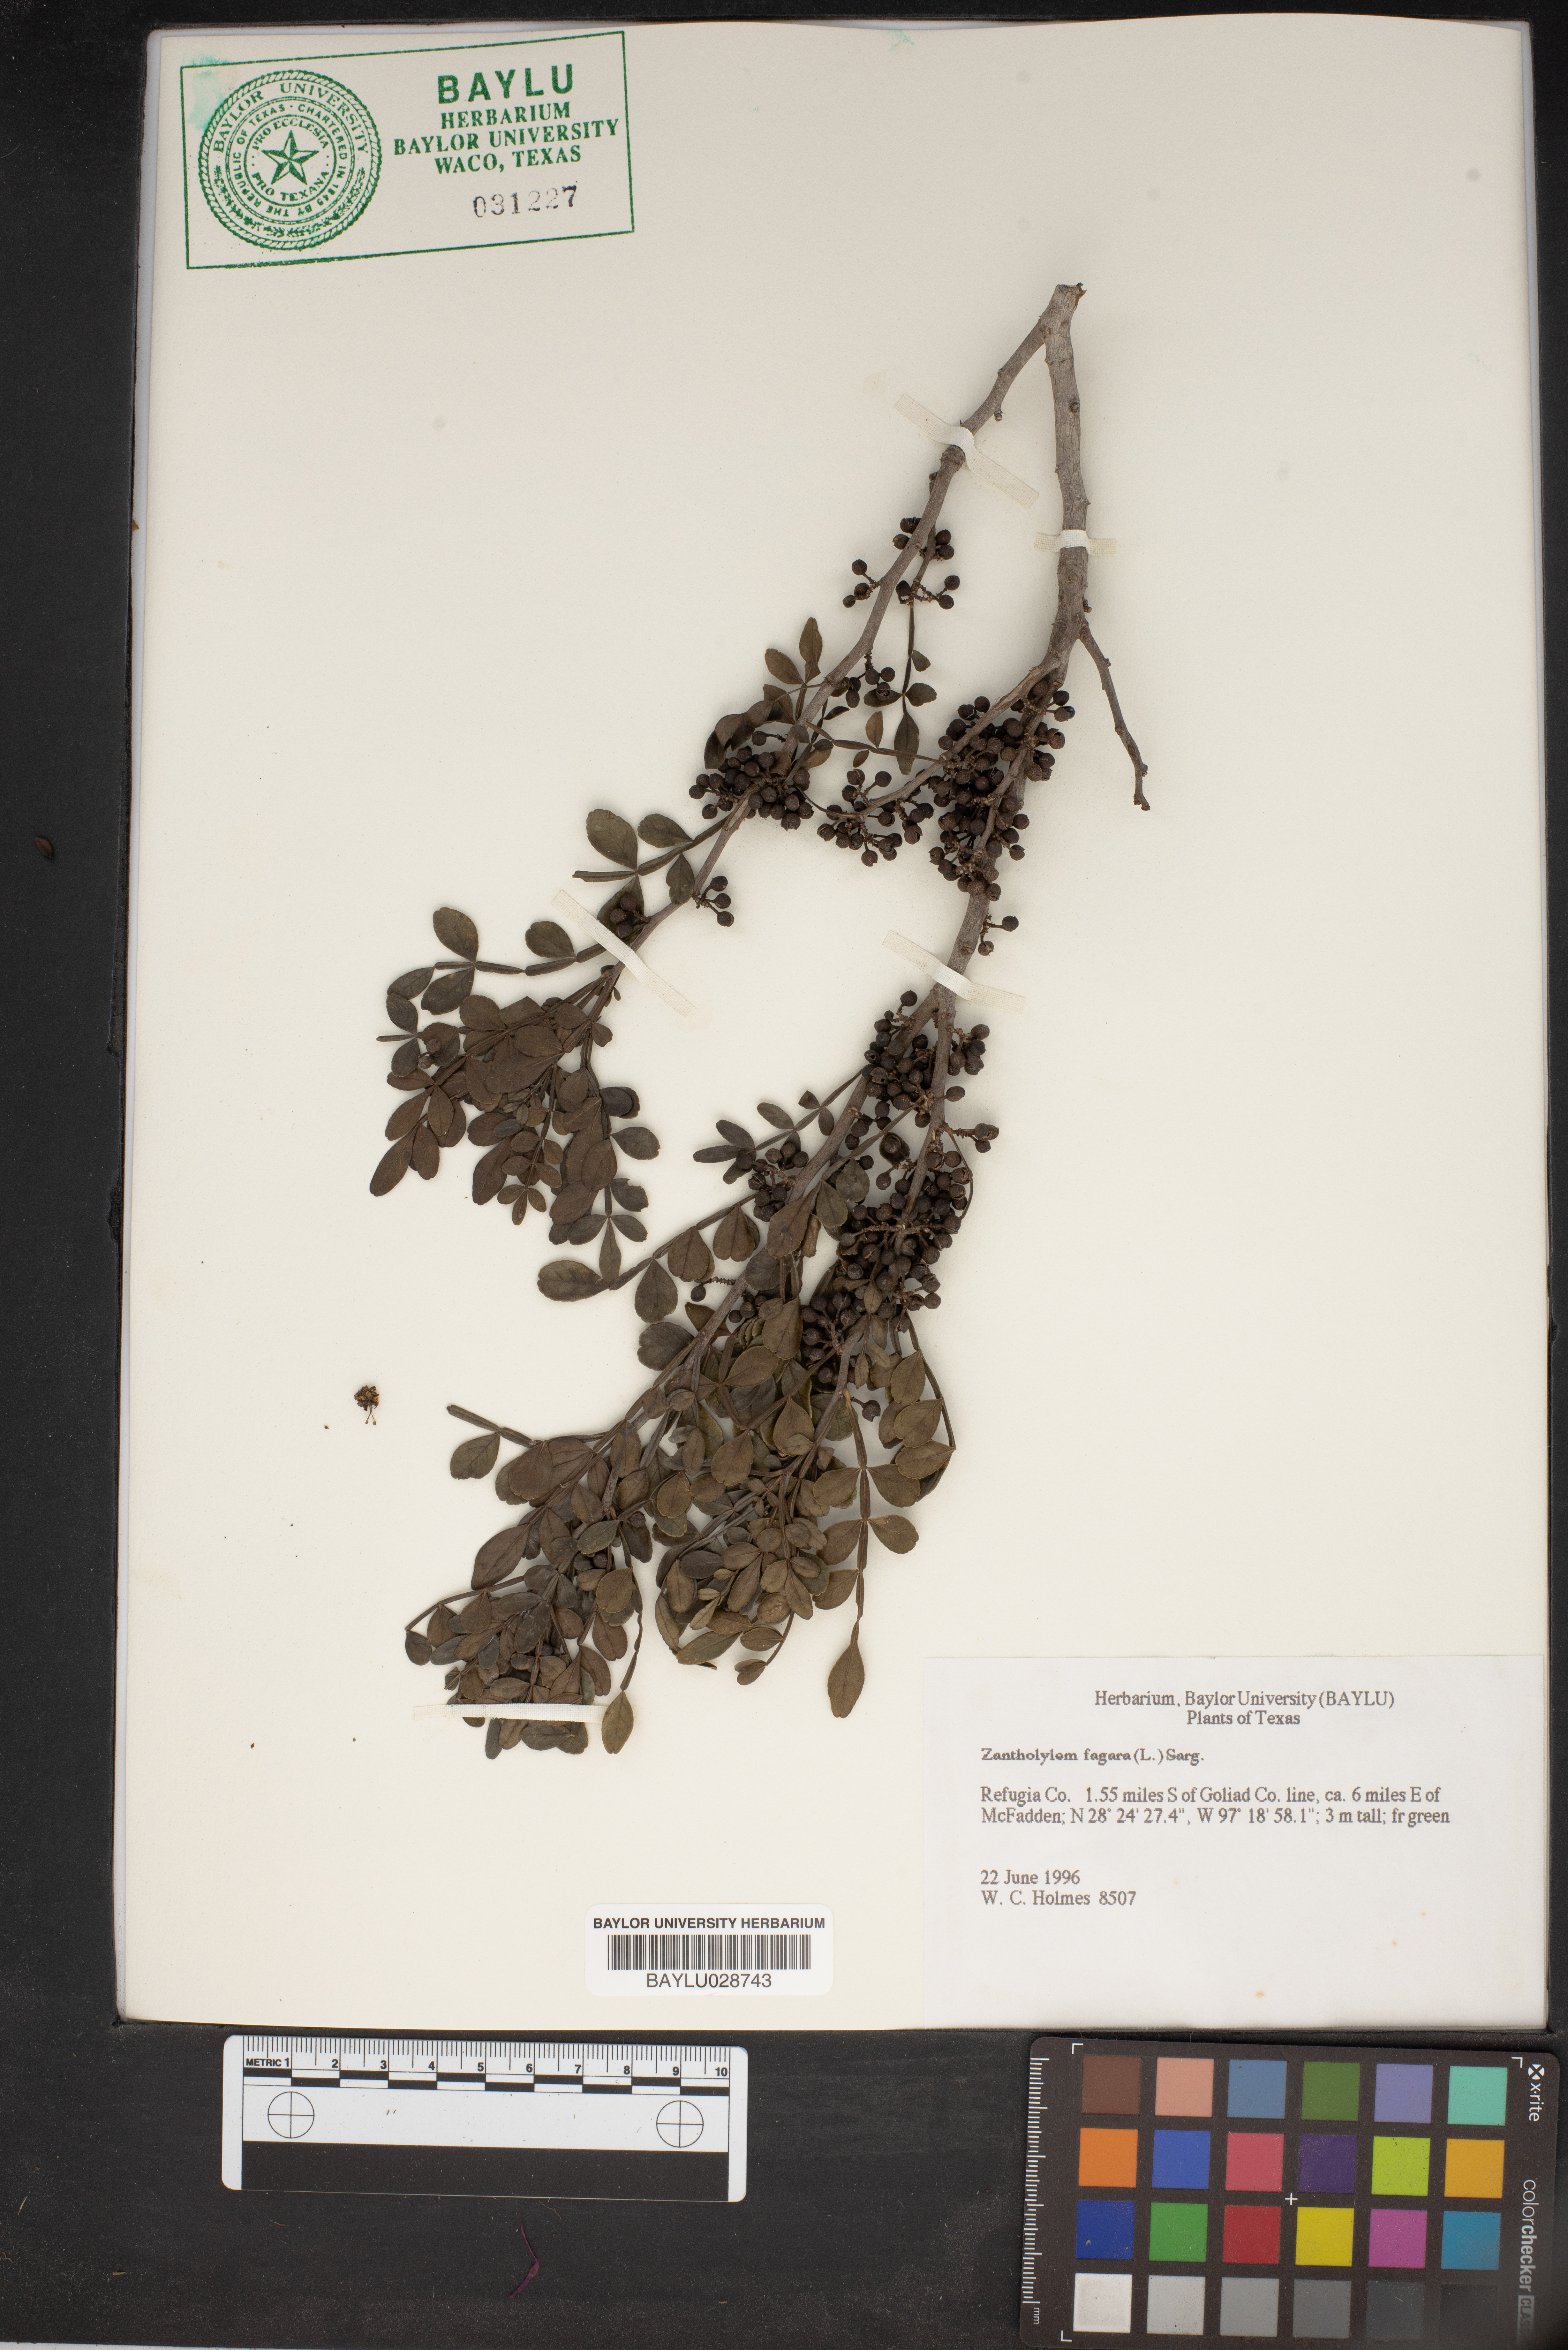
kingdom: Plantae
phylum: Tracheophyta
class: Magnoliopsida
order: Sapindales
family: Rutaceae
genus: Zanthoxylum
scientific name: Zanthoxylum fagara
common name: Lime prickly-ash
